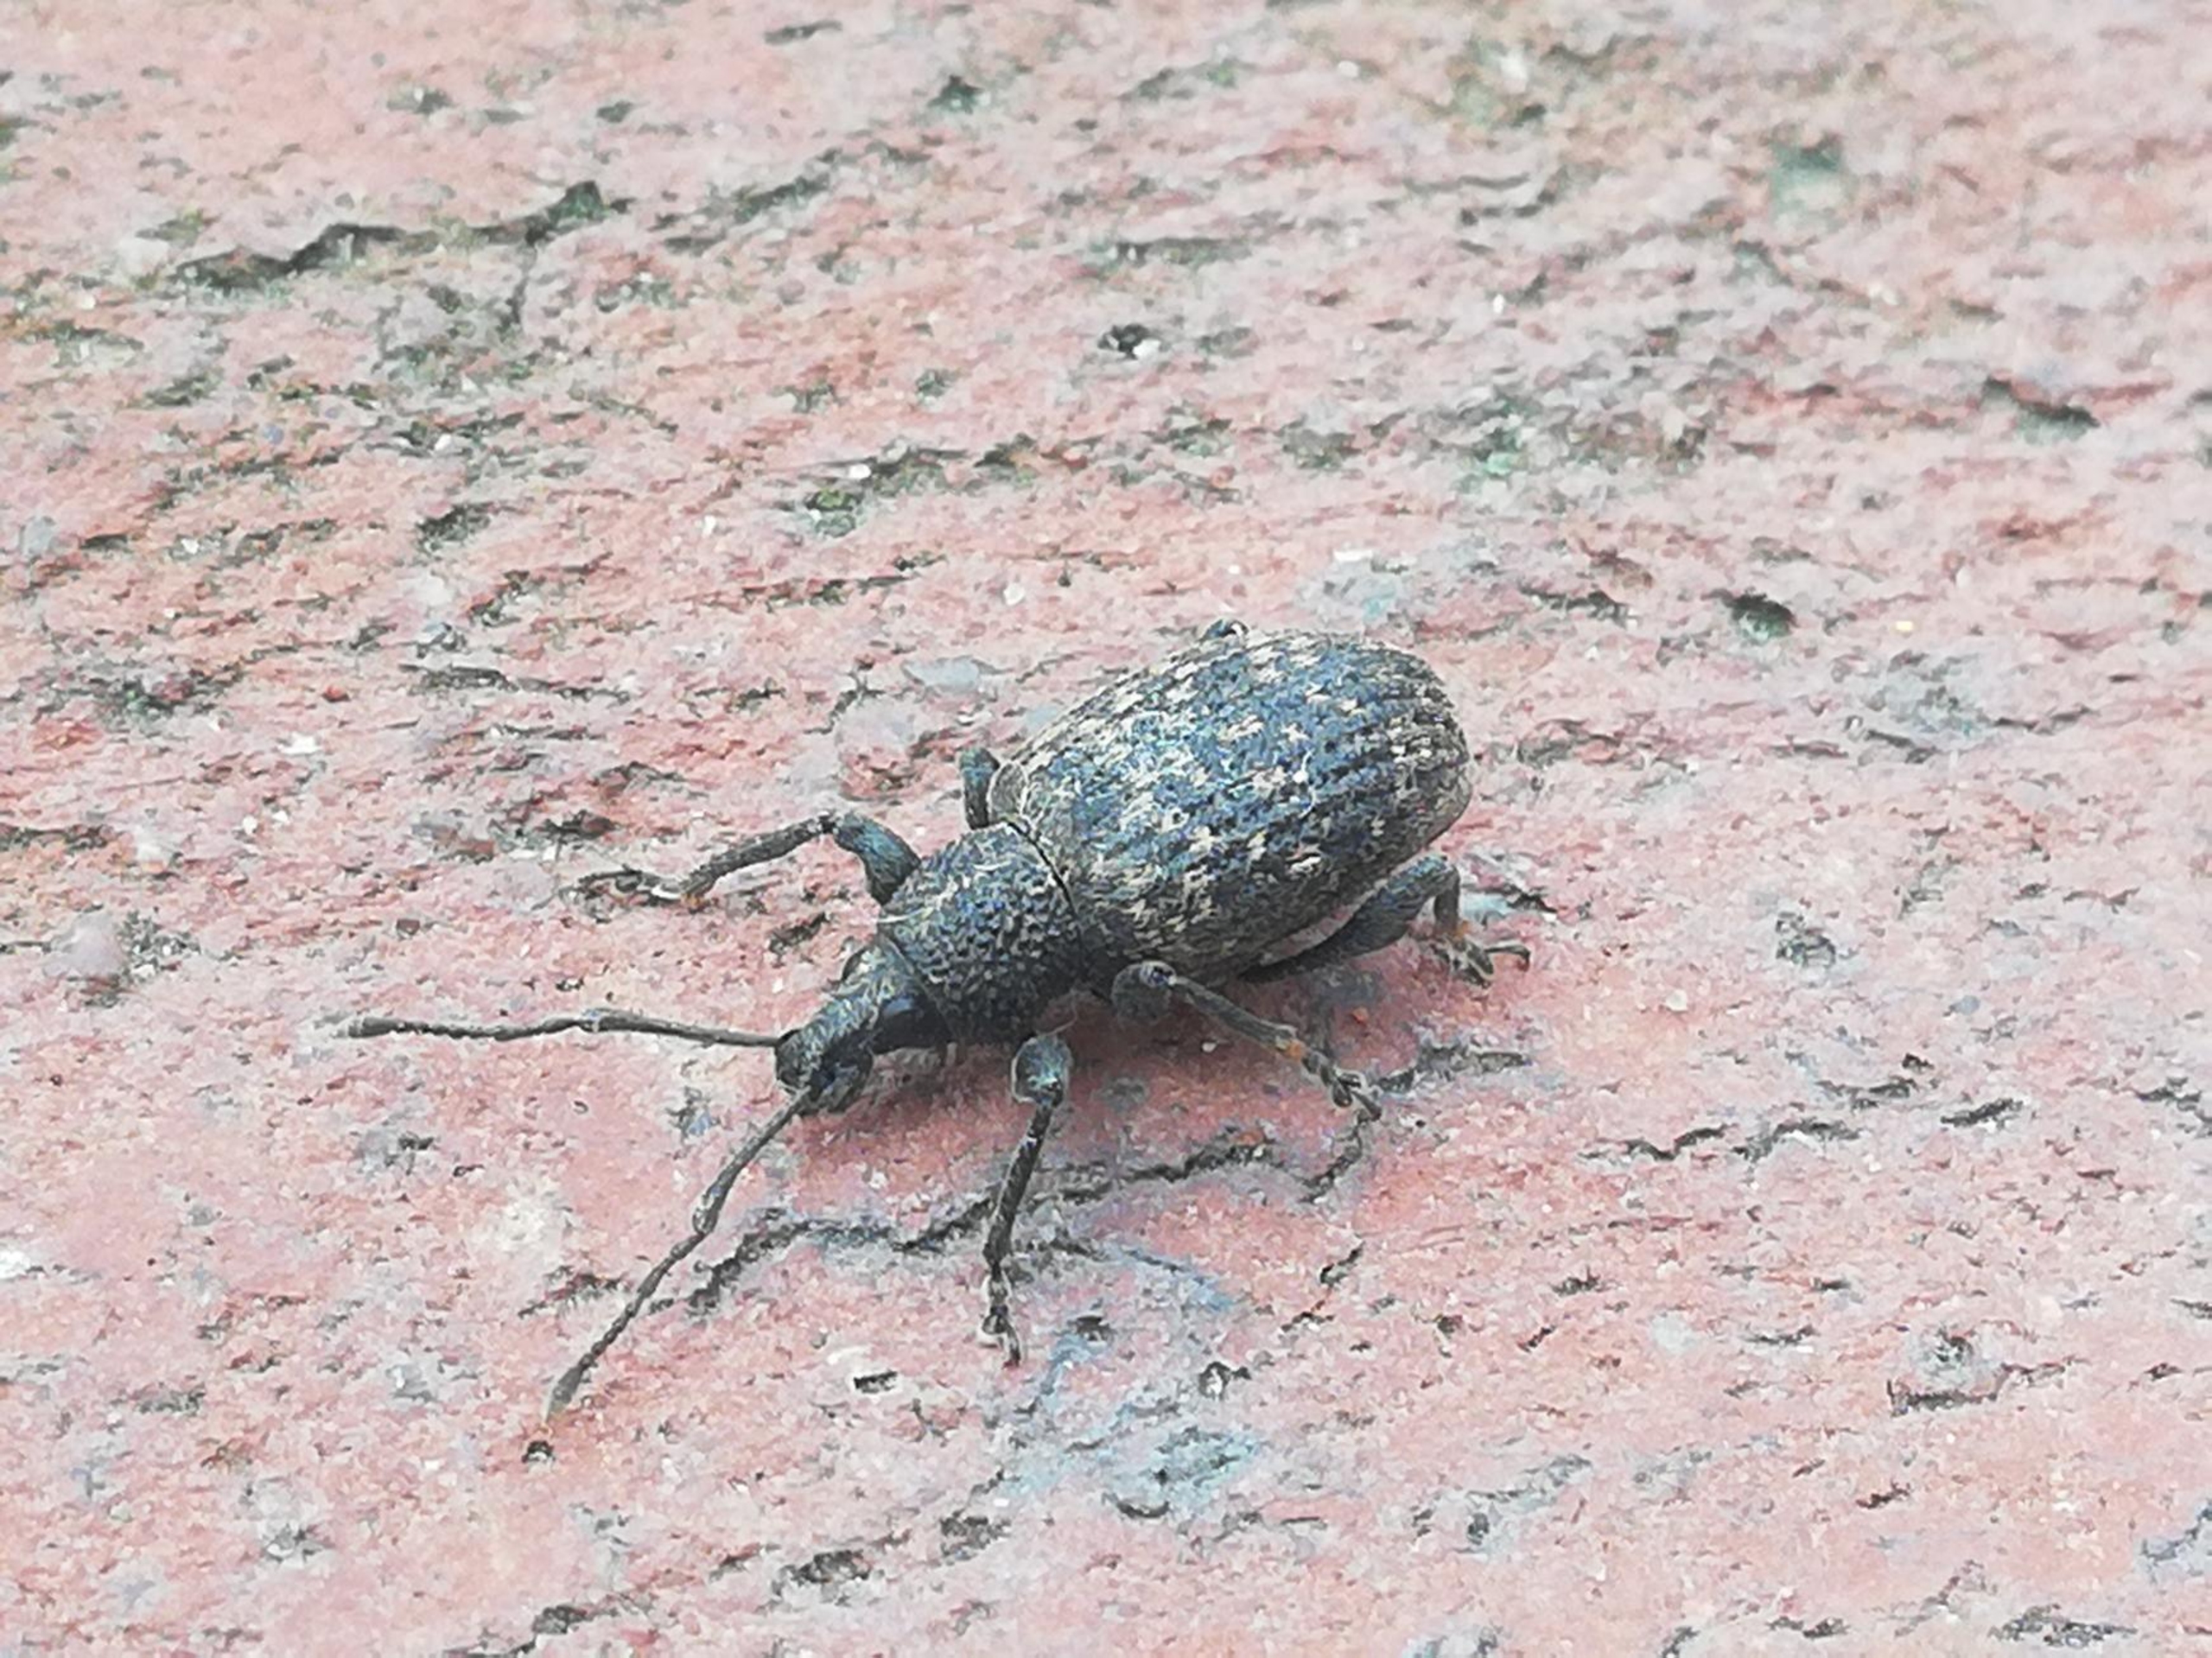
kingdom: Animalia
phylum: Arthropoda
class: Insecta
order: Coleoptera
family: Curculionidae
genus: Otiorhynchus
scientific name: Otiorhynchus sulcatus
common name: Væksthussnudebille
